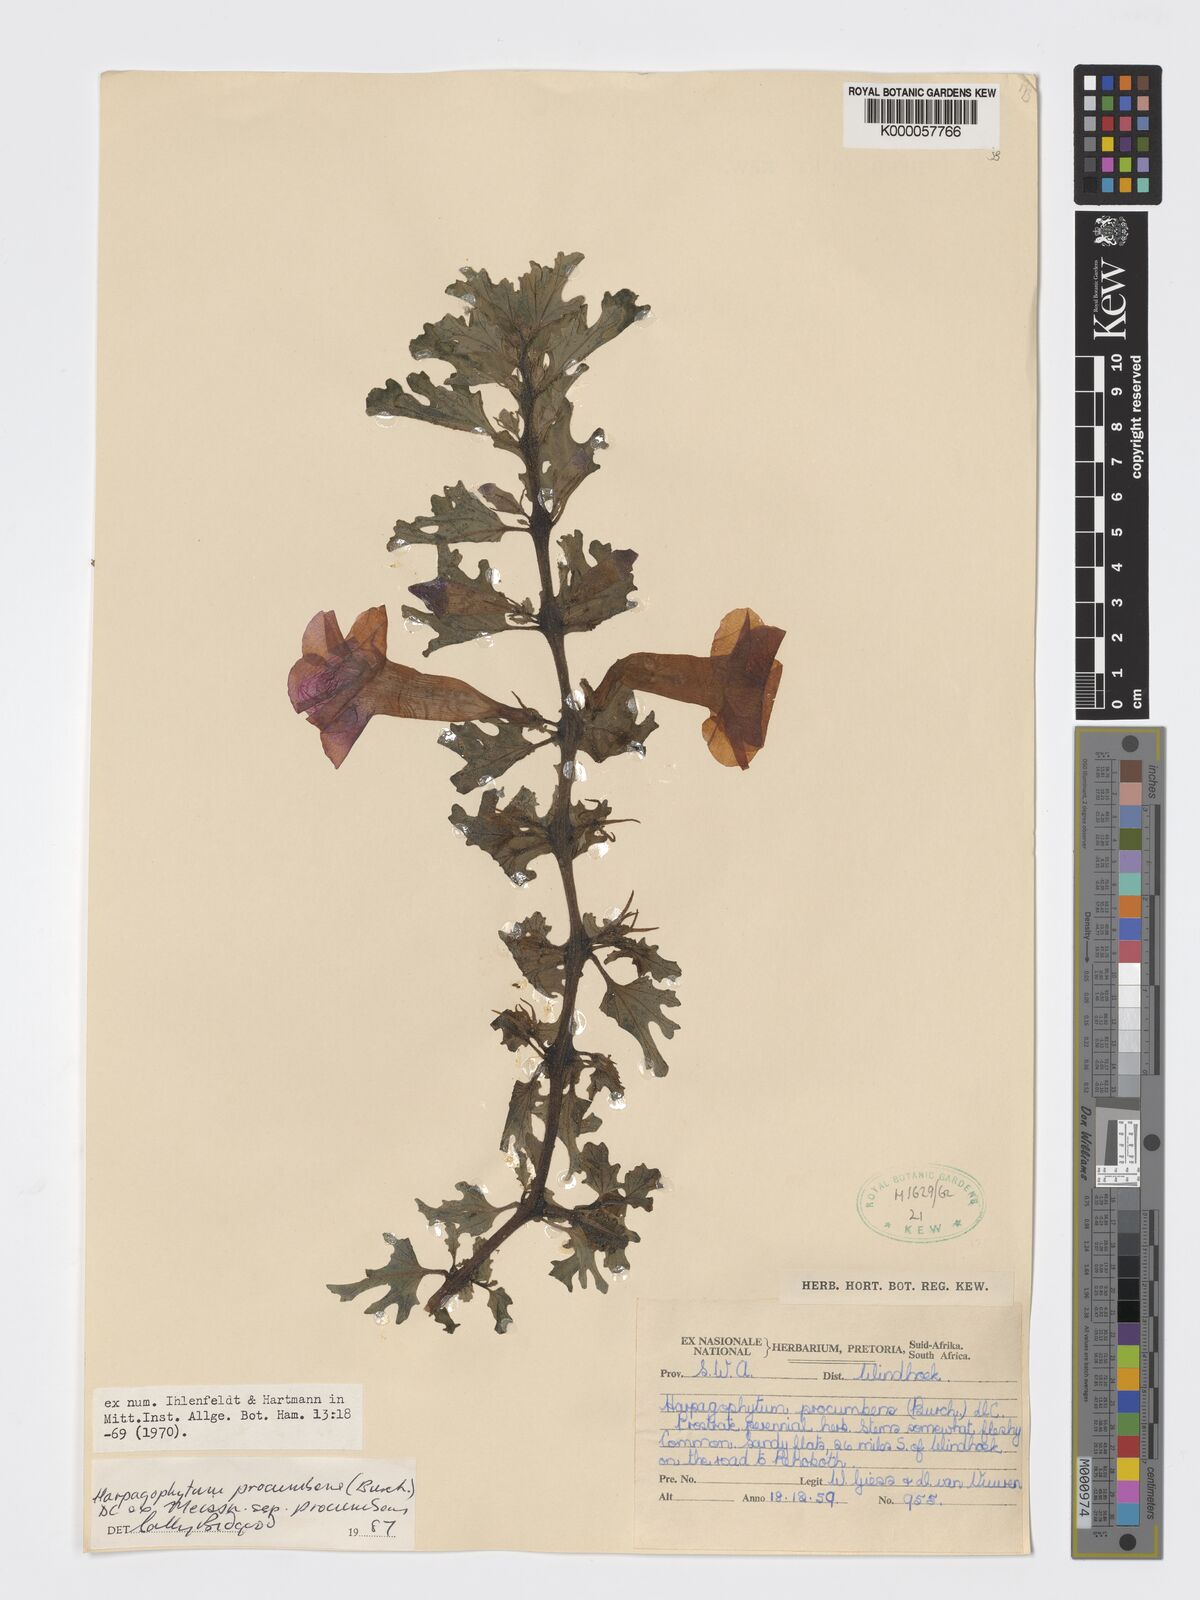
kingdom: Plantae
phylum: Tracheophyta
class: Magnoliopsida
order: Lamiales
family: Pedaliaceae
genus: Harpagophytum
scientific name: Harpagophytum procumbens
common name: Grappleplant
